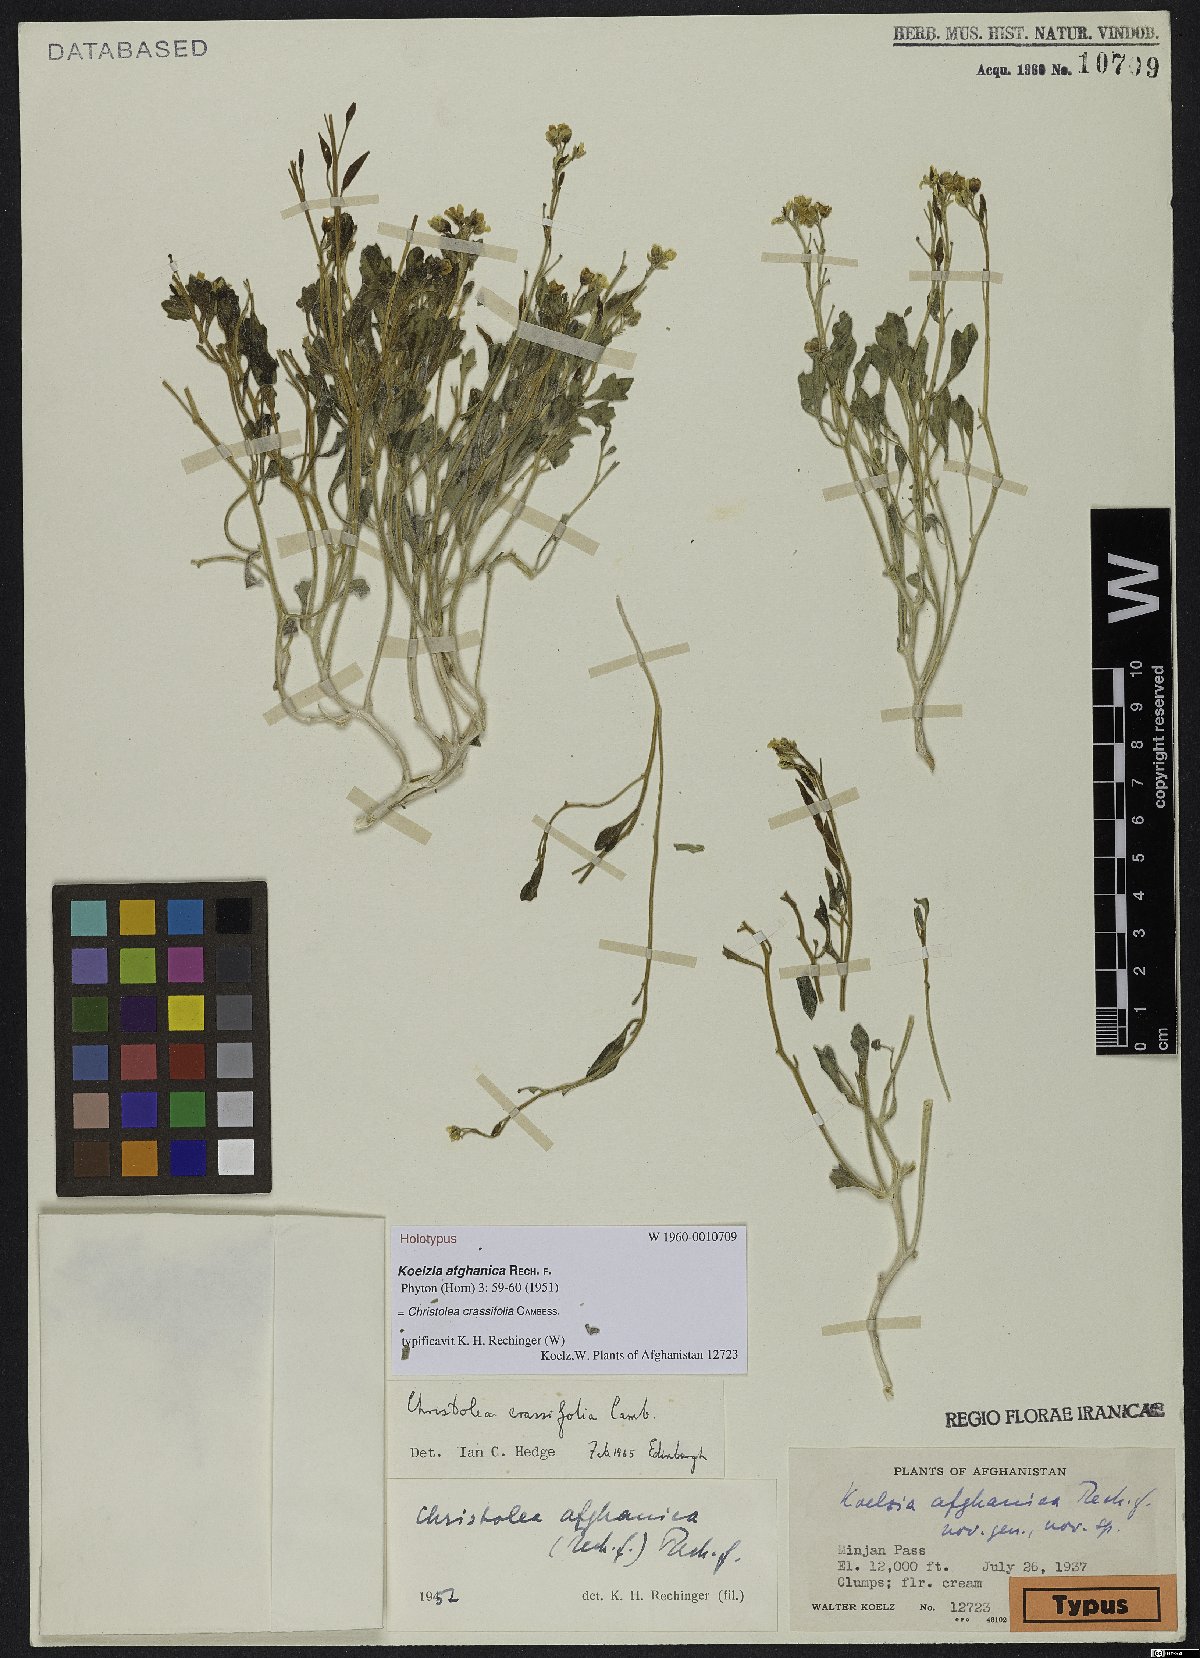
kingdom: Plantae
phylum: Tracheophyta
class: Magnoliopsida
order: Brassicales
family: Brassicaceae
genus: Christolea
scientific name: Christolea crassifolia
